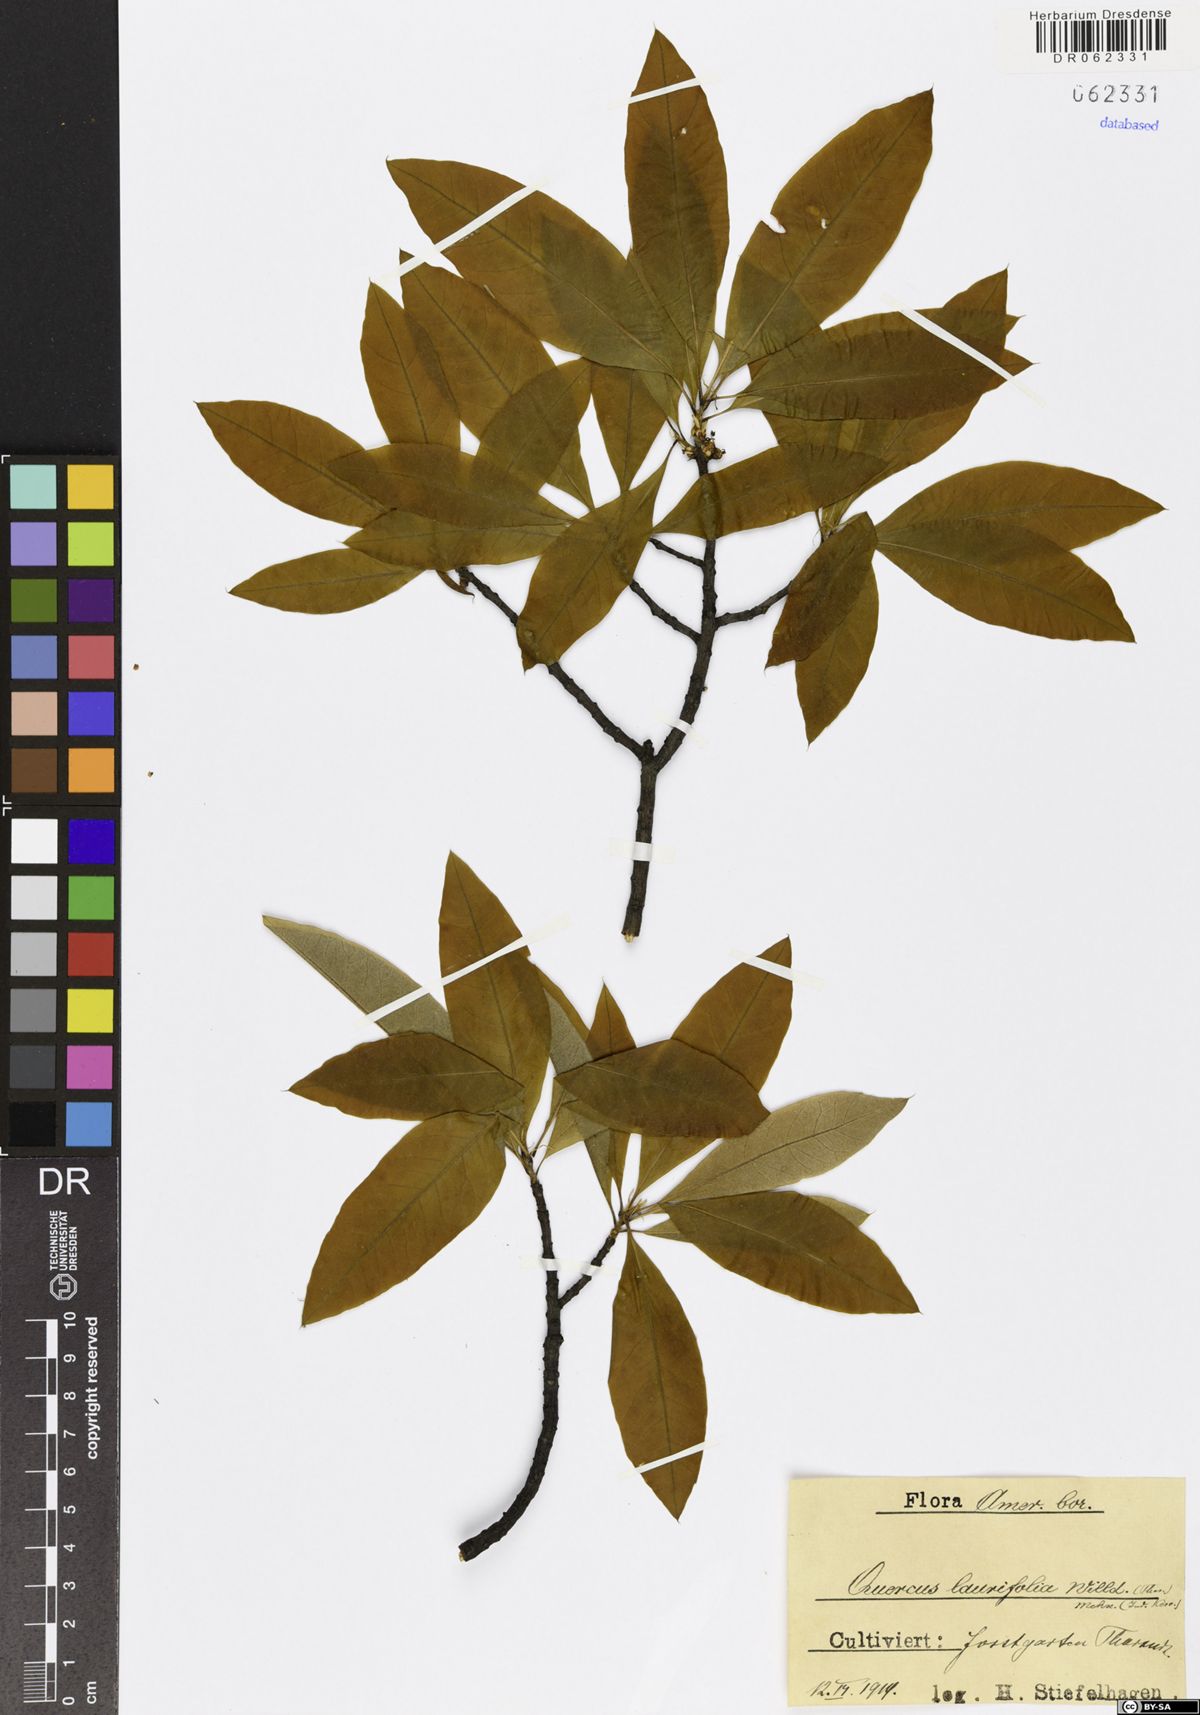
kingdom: Plantae
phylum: Tracheophyta
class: Magnoliopsida
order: Fagales
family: Fagaceae
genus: Quercus
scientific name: Quercus laurifolia
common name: Swamp laurel oak
